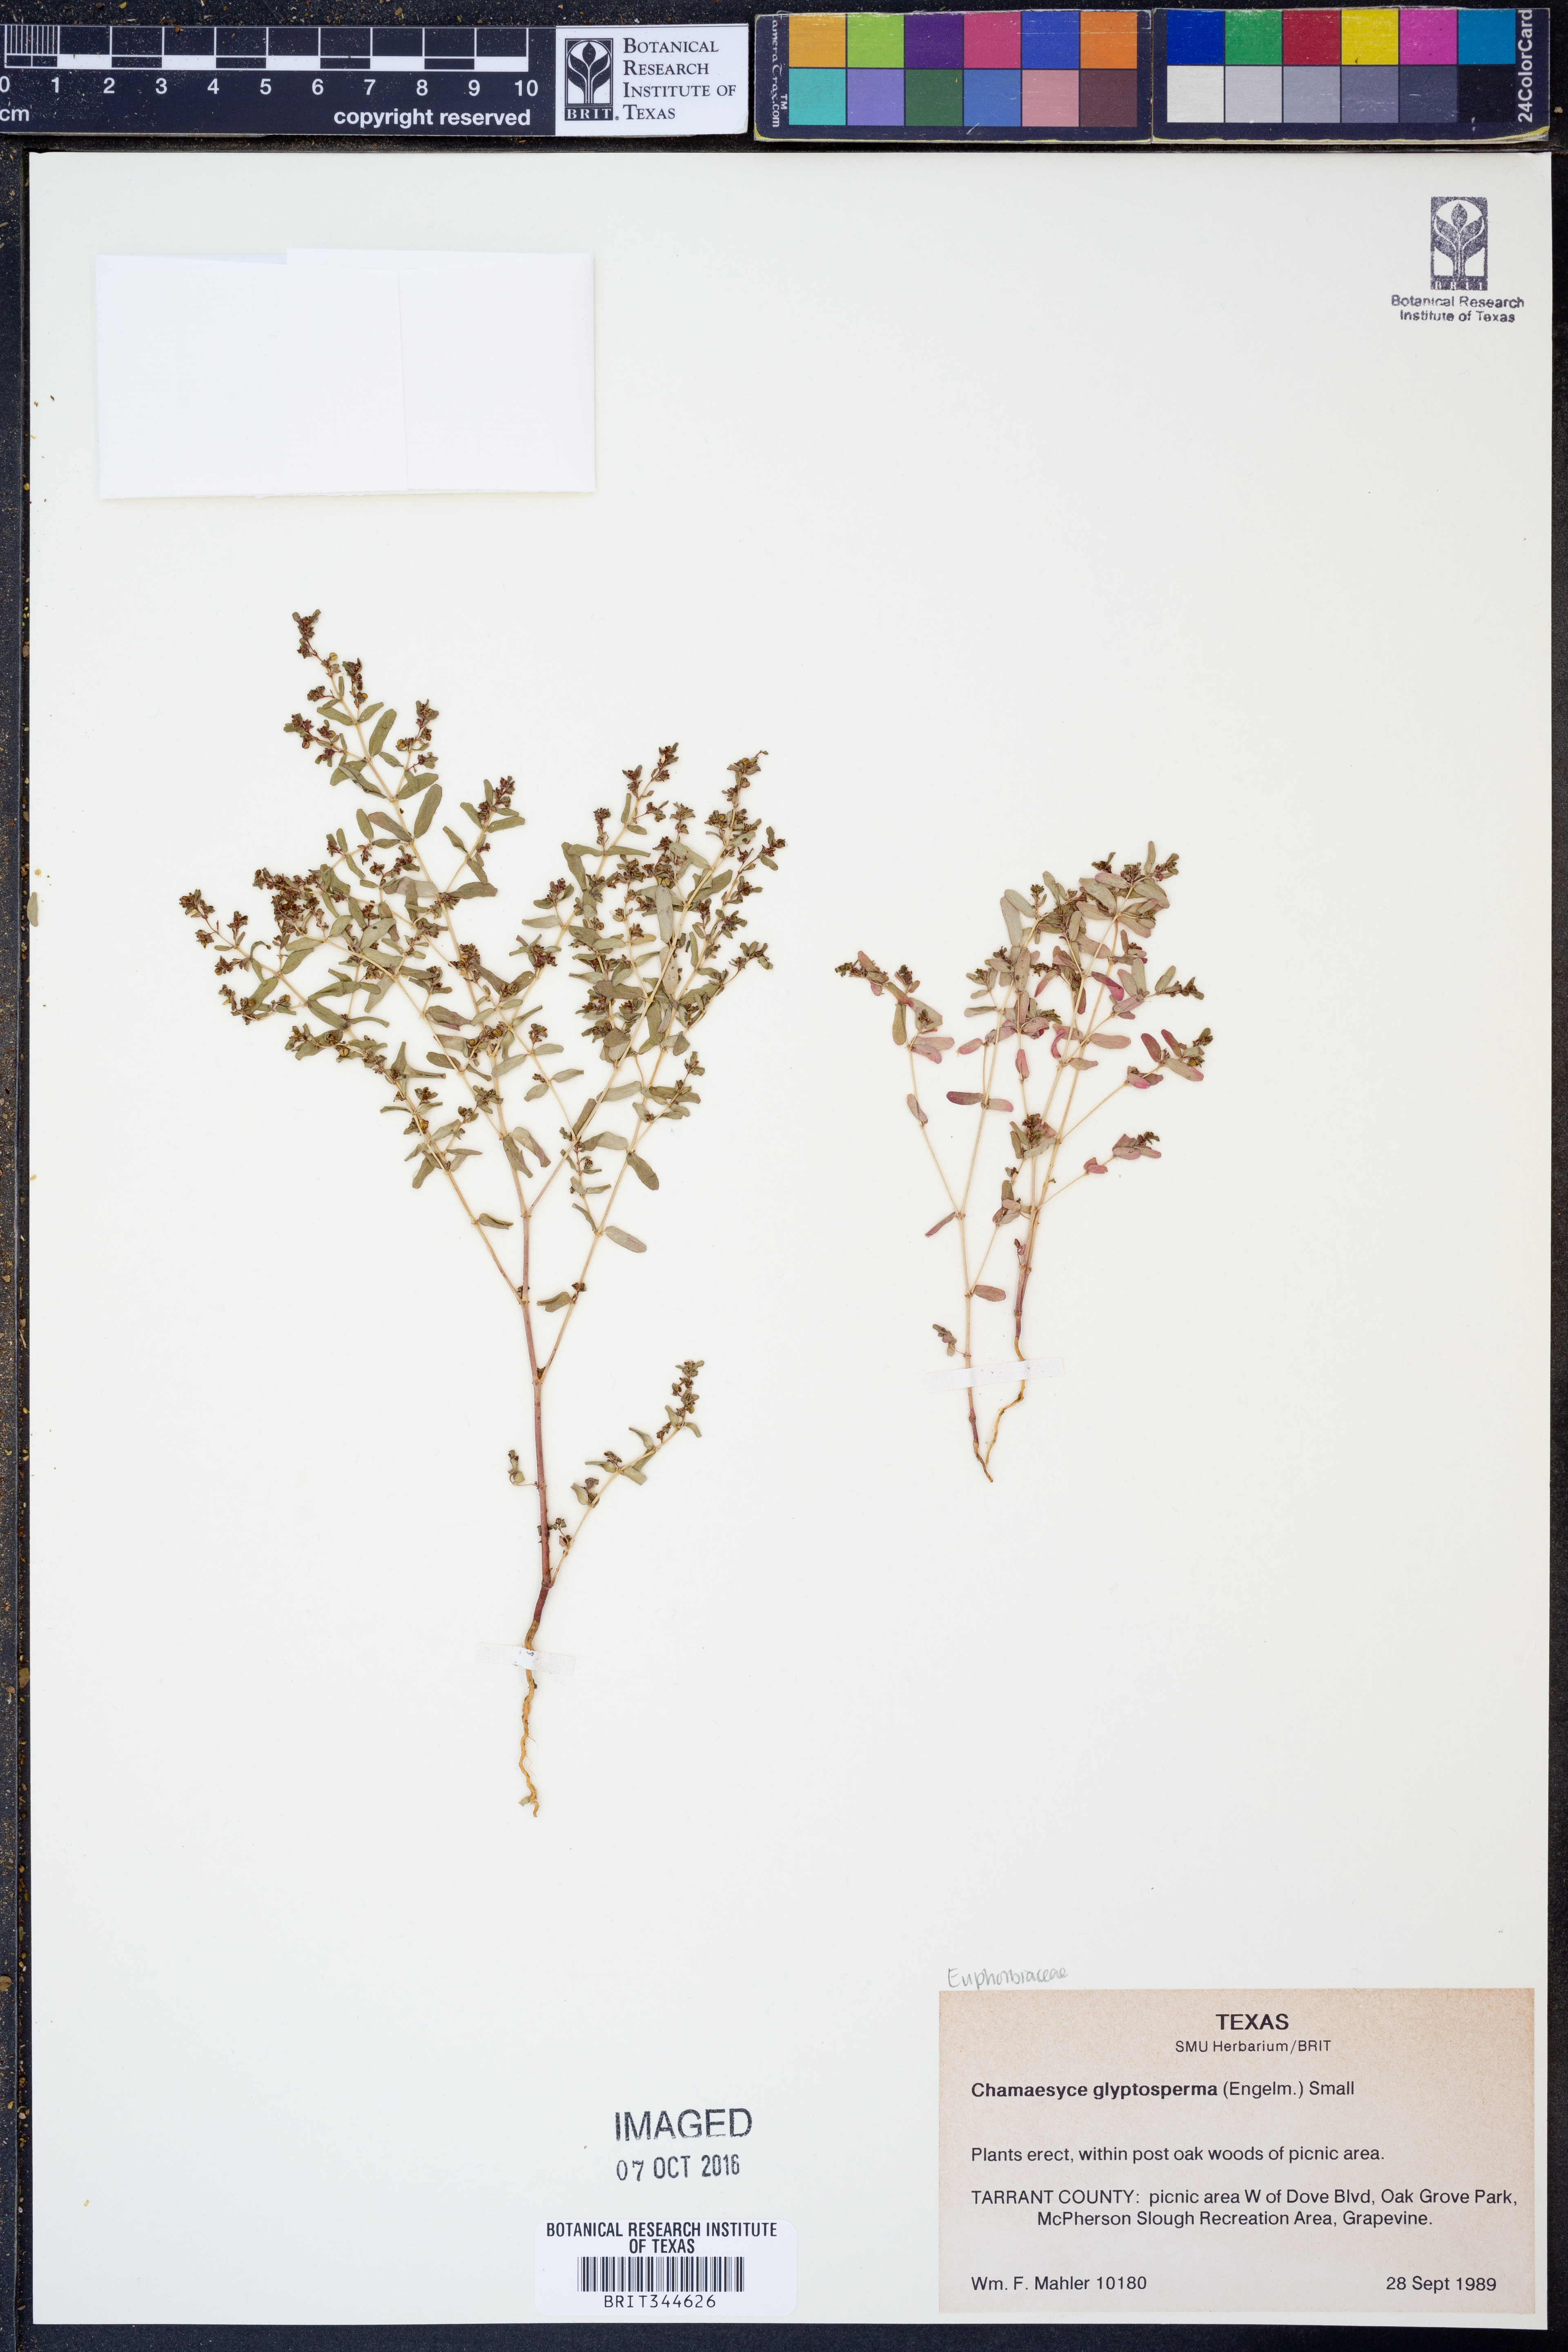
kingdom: Plantae
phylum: Tracheophyta
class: Magnoliopsida
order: Malpighiales
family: Euphorbiaceae
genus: Euphorbia
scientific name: Euphorbia glyptosperma
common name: Corrugate-seeded spurge
